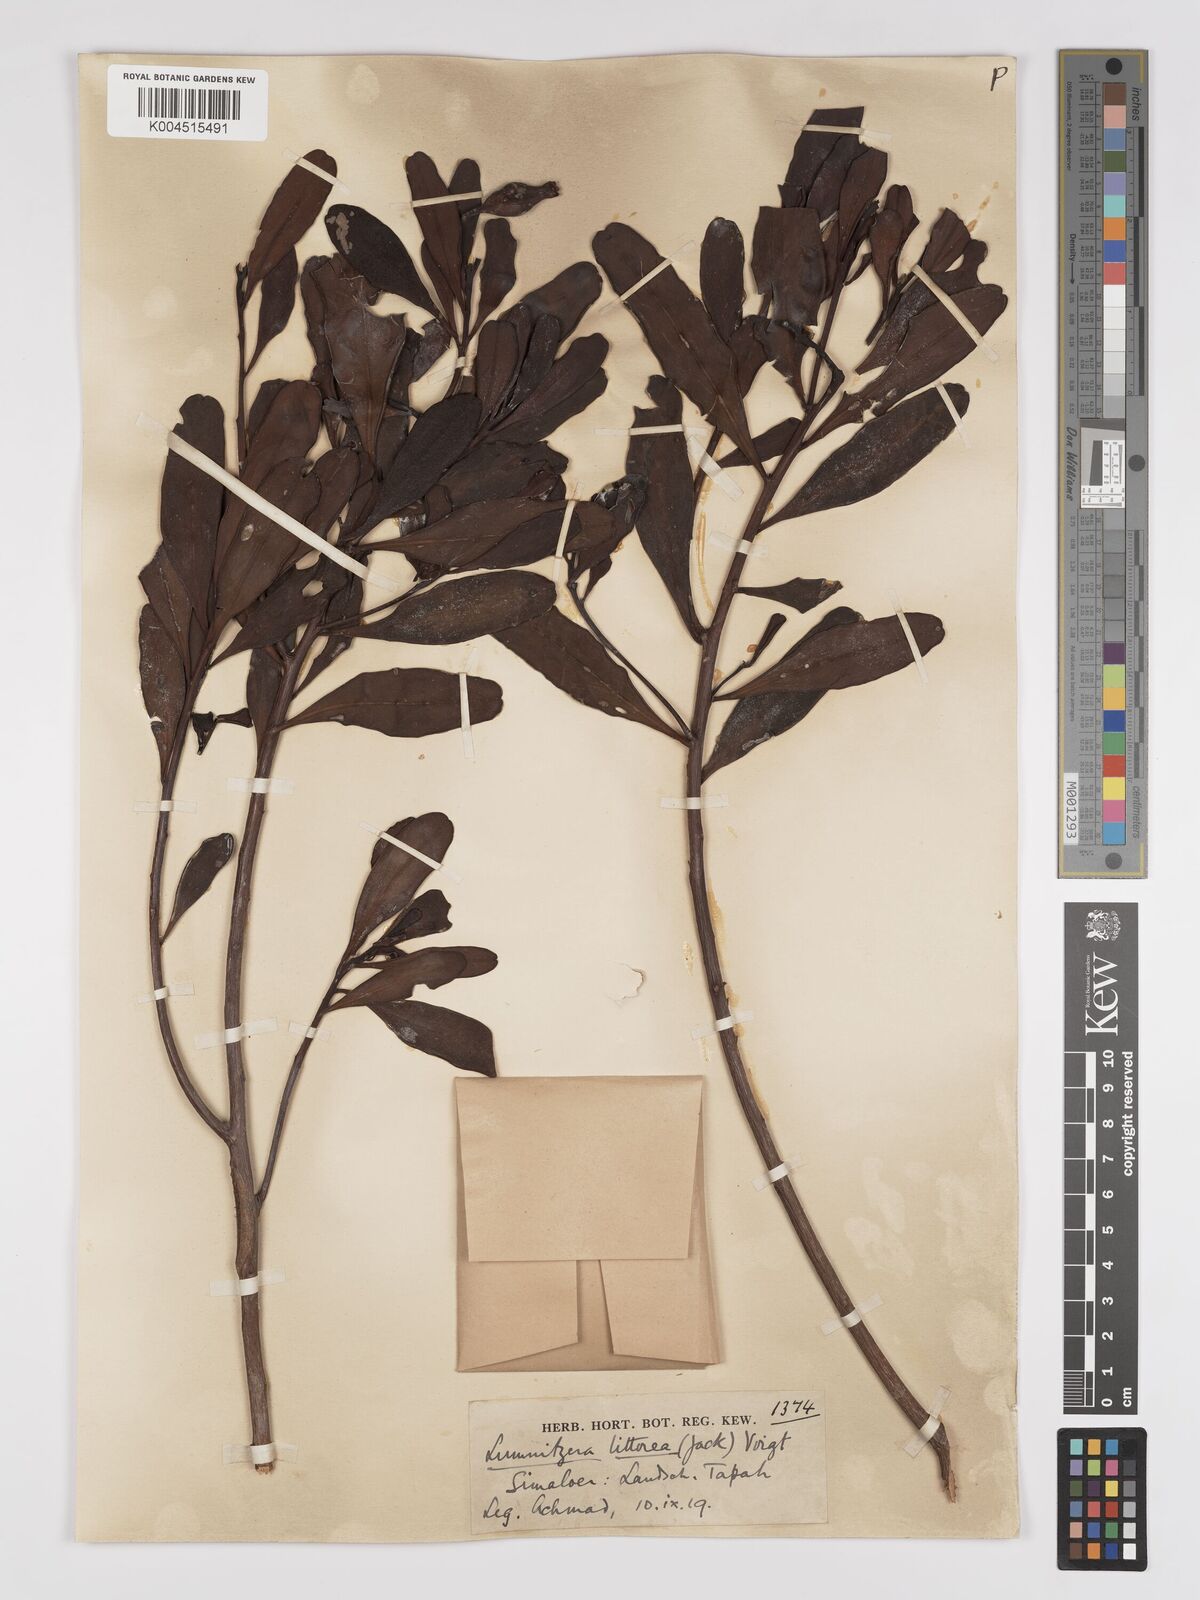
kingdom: Plantae
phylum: Tracheophyta
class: Magnoliopsida
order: Myrtales
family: Combretaceae
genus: Lumnitzera
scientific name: Lumnitzera littorea
